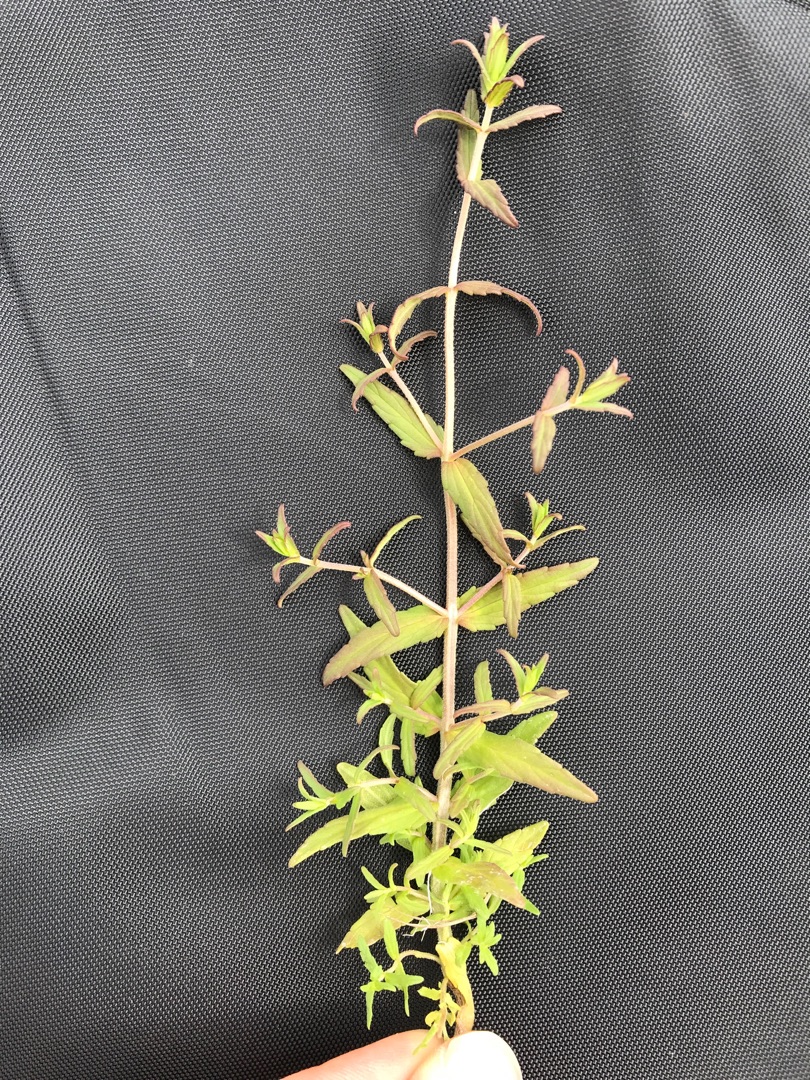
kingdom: Plantae
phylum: Tracheophyta
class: Magnoliopsida
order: Lamiales
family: Orobanchaceae
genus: Odontites
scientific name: Odontites vulgaris
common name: Høst-rødtop
